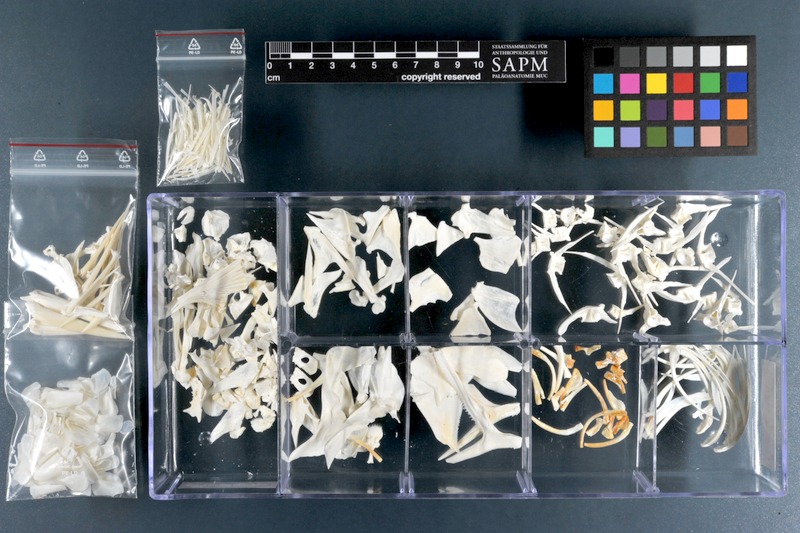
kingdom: Animalia
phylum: Chordata
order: Beryciformes
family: Holocentridae
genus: Sargocentron
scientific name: Sargocentron spiniferum
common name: Giant squirrelfish
